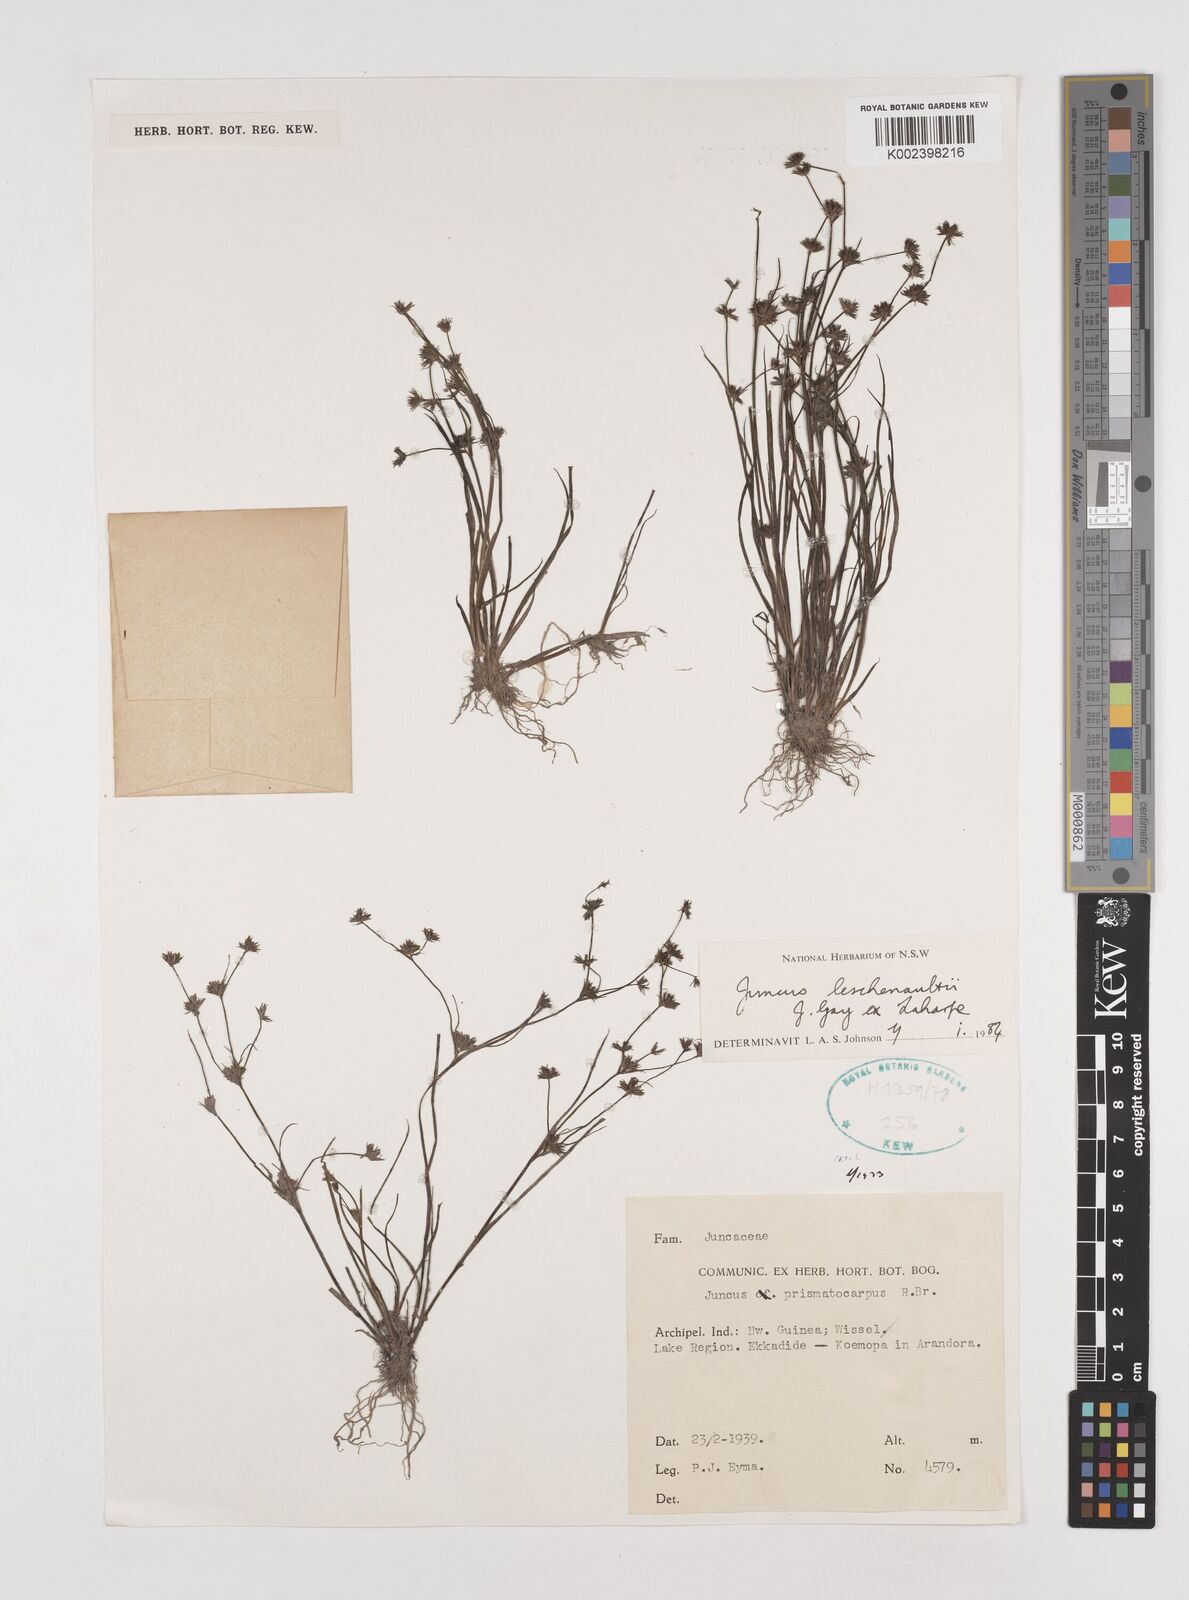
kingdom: Plantae
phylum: Tracheophyta
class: Liliopsida
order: Poales
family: Juncaceae
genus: Juncus
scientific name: Juncus prismatocarpus
